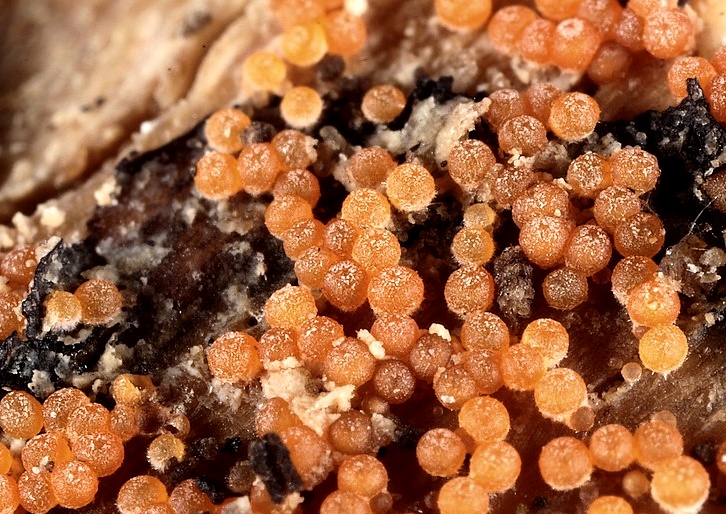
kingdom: Fungi
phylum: Ascomycota
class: Sordariomycetes
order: Hypocreales
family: Nectriaceae
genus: Hydropisphaera
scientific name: Hydropisphaera peziza
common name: skålformet gyldenkerne
